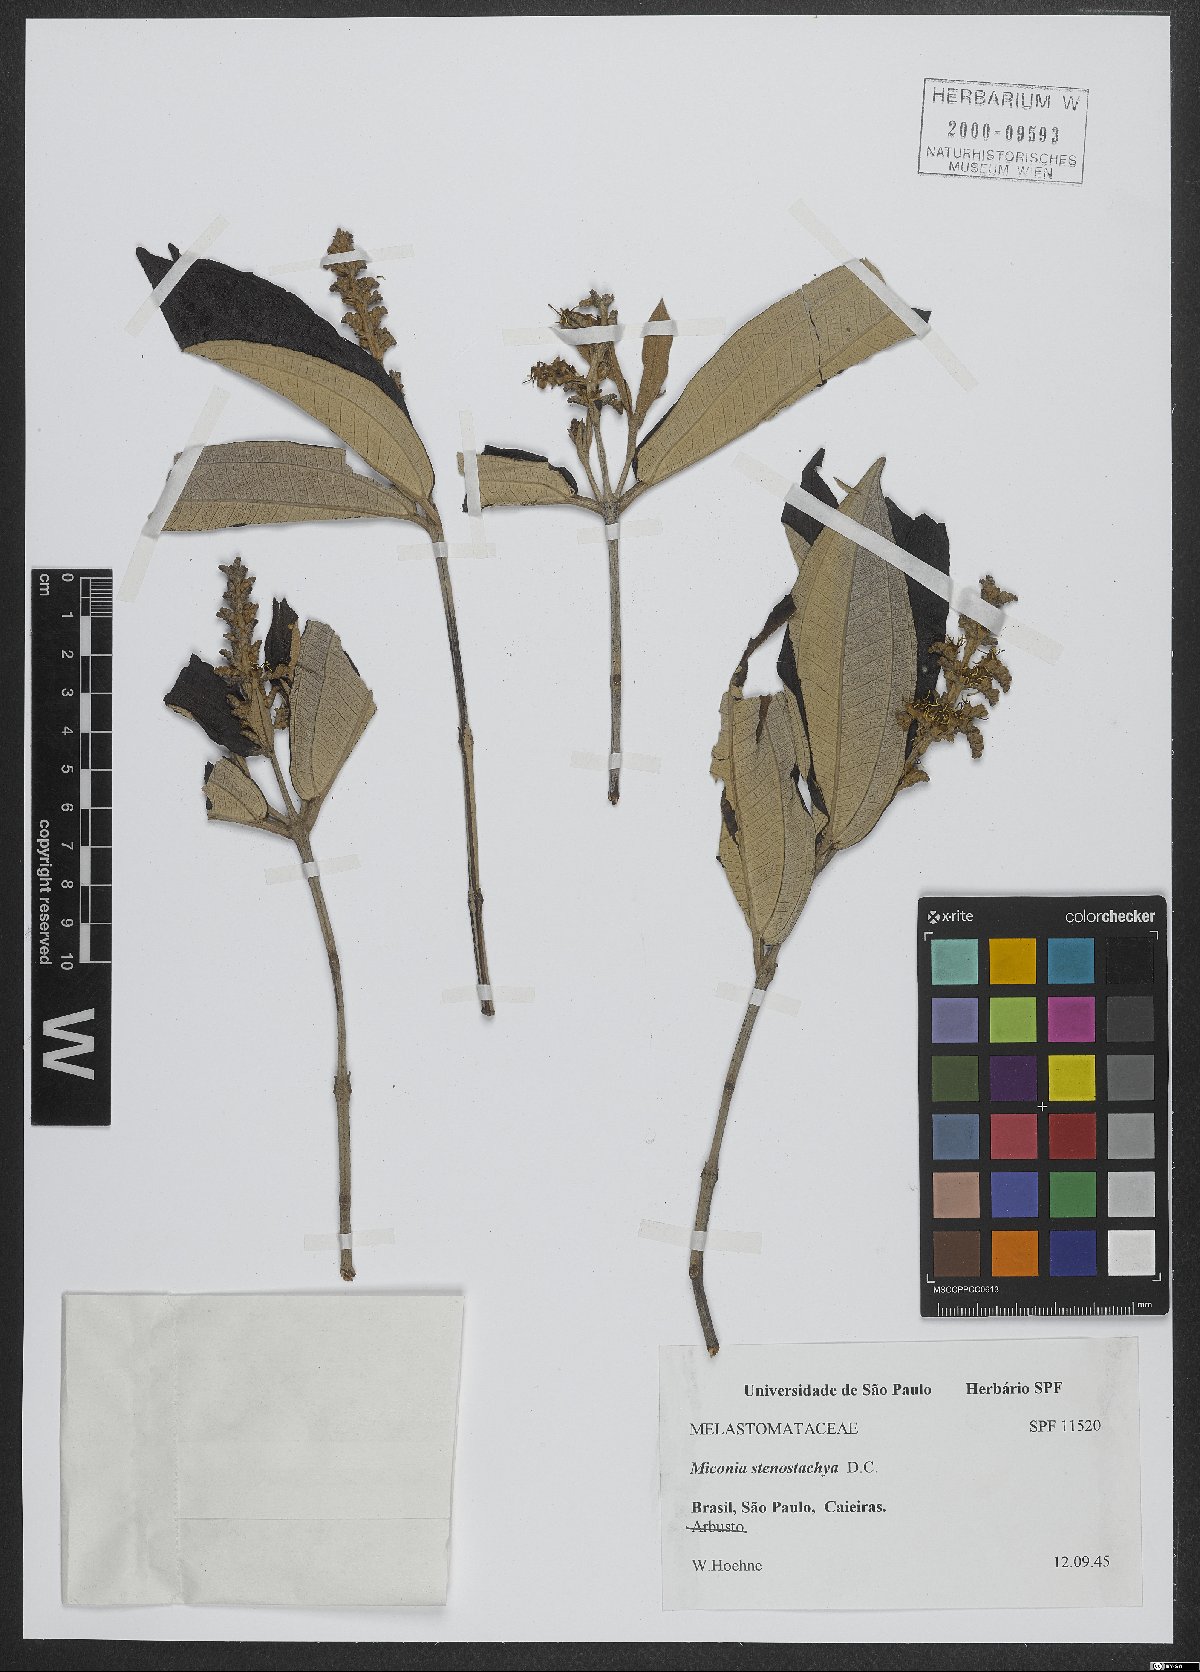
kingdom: Plantae
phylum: Tracheophyta
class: Magnoliopsida
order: Myrtales
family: Melastomataceae
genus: Miconia
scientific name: Miconia stenostachya
